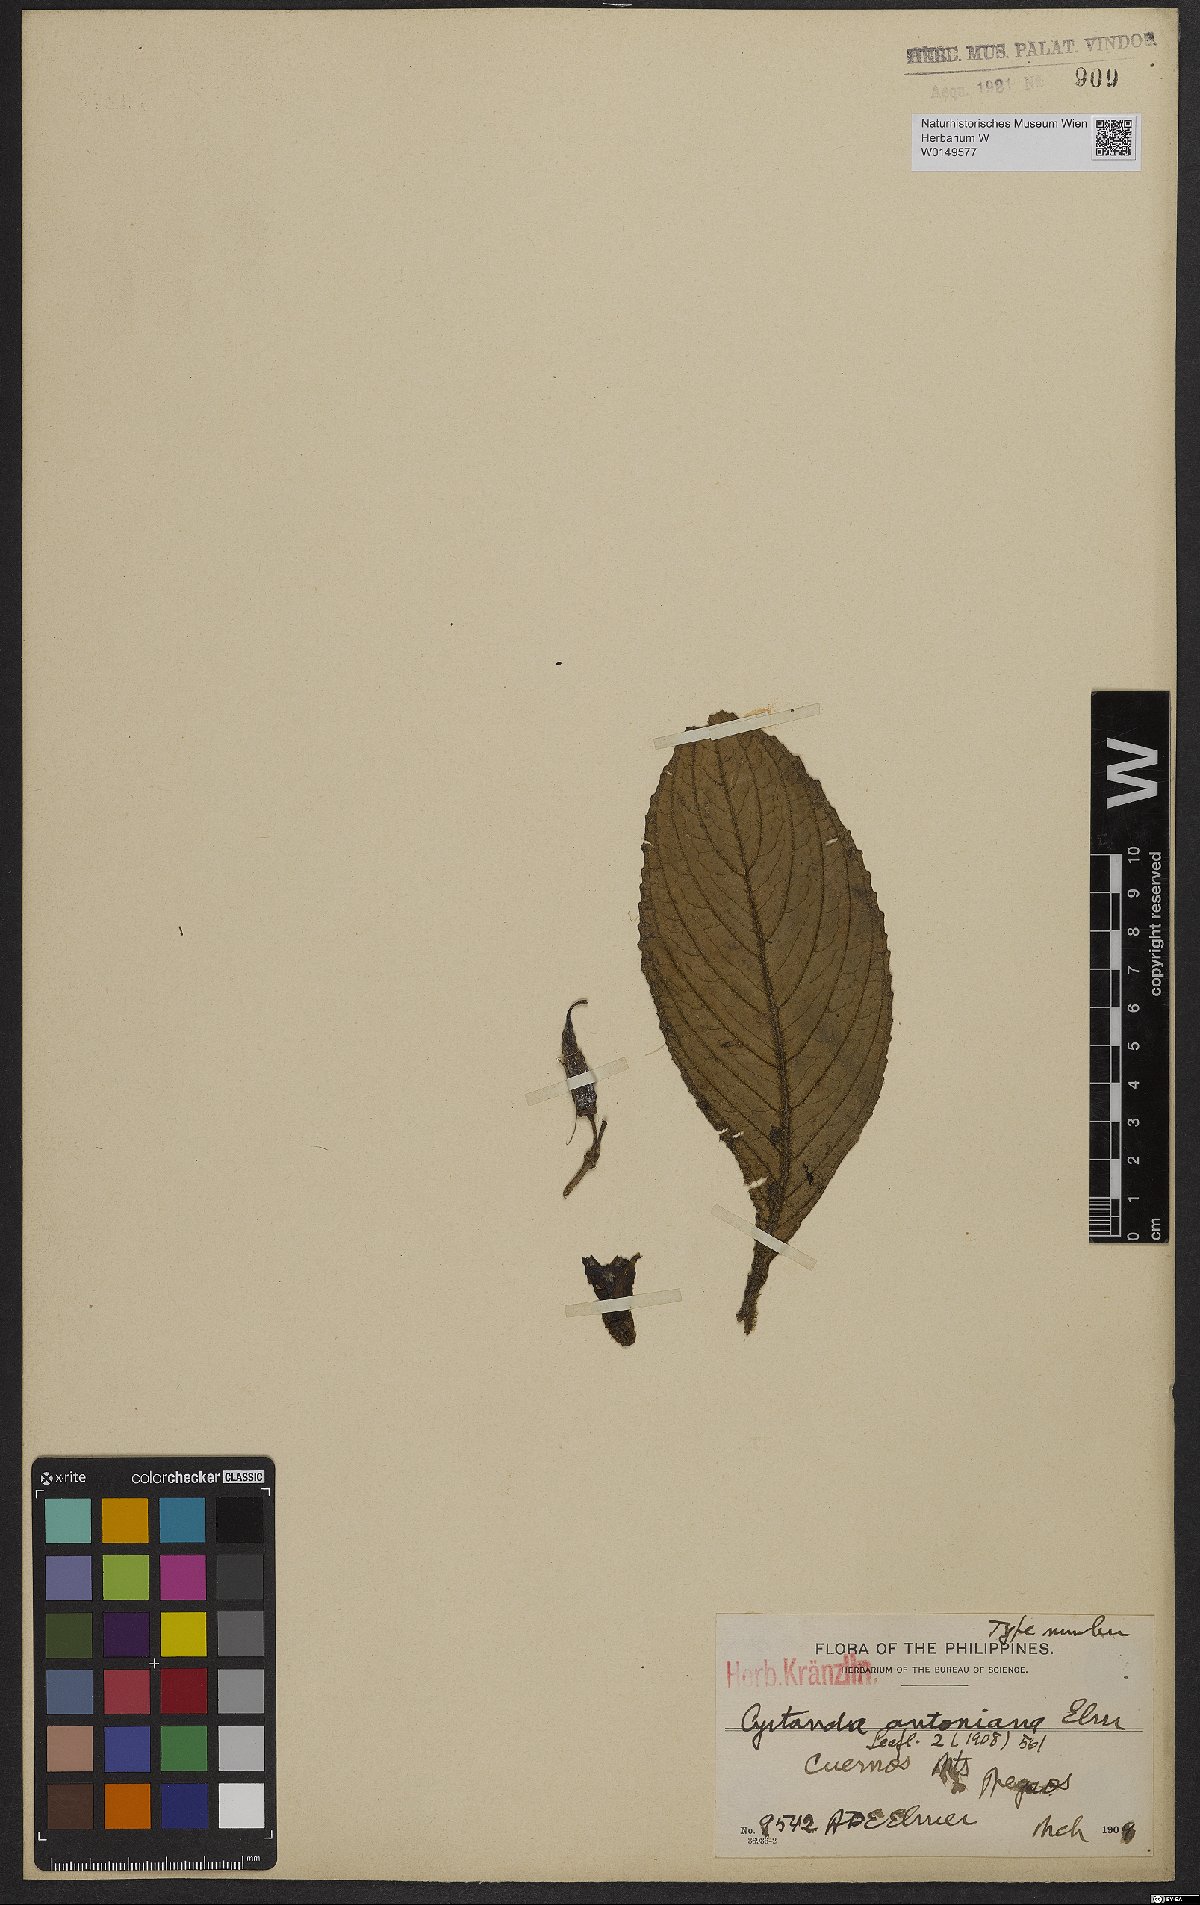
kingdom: Plantae
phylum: Tracheophyta
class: Magnoliopsida
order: Lamiales
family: Gesneriaceae
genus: Cyrtandra
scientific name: Cyrtandra antoniana
